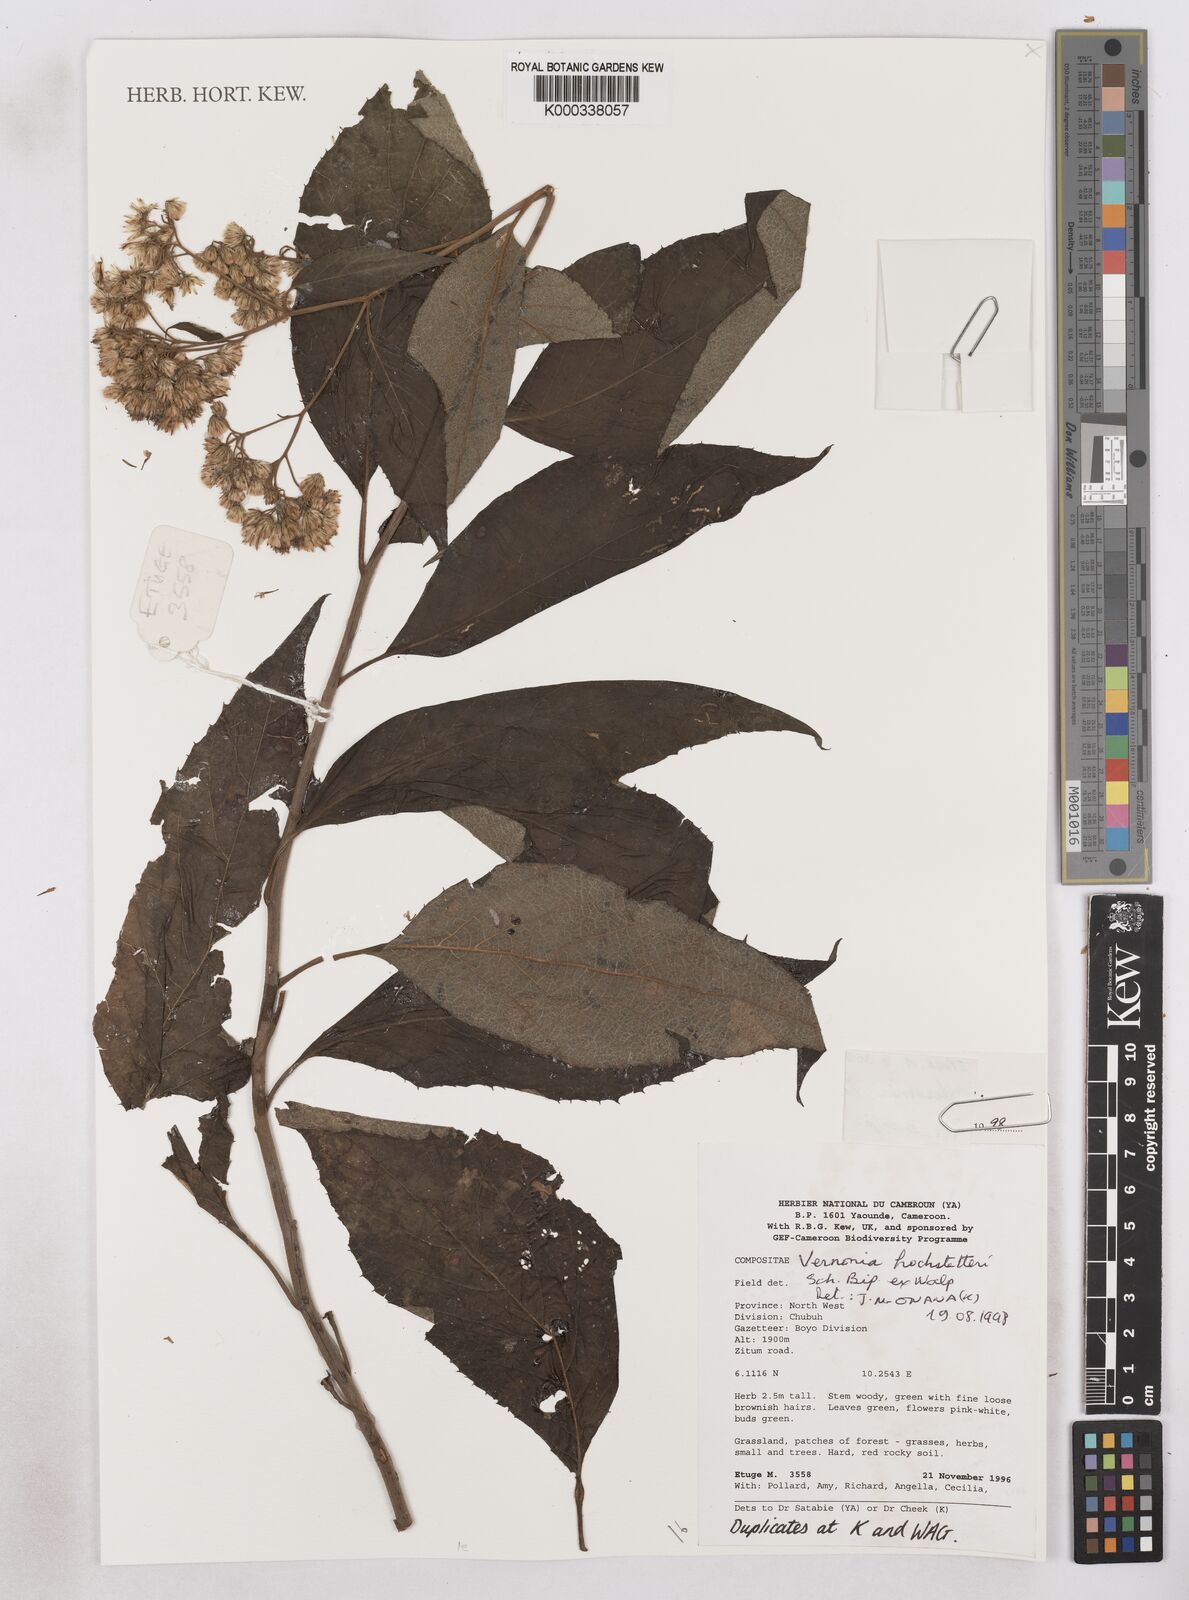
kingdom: Plantae
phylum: Tracheophyta
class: Magnoliopsida
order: Asterales
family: Asteraceae
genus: Vernonia
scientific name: Vernonia holstii
